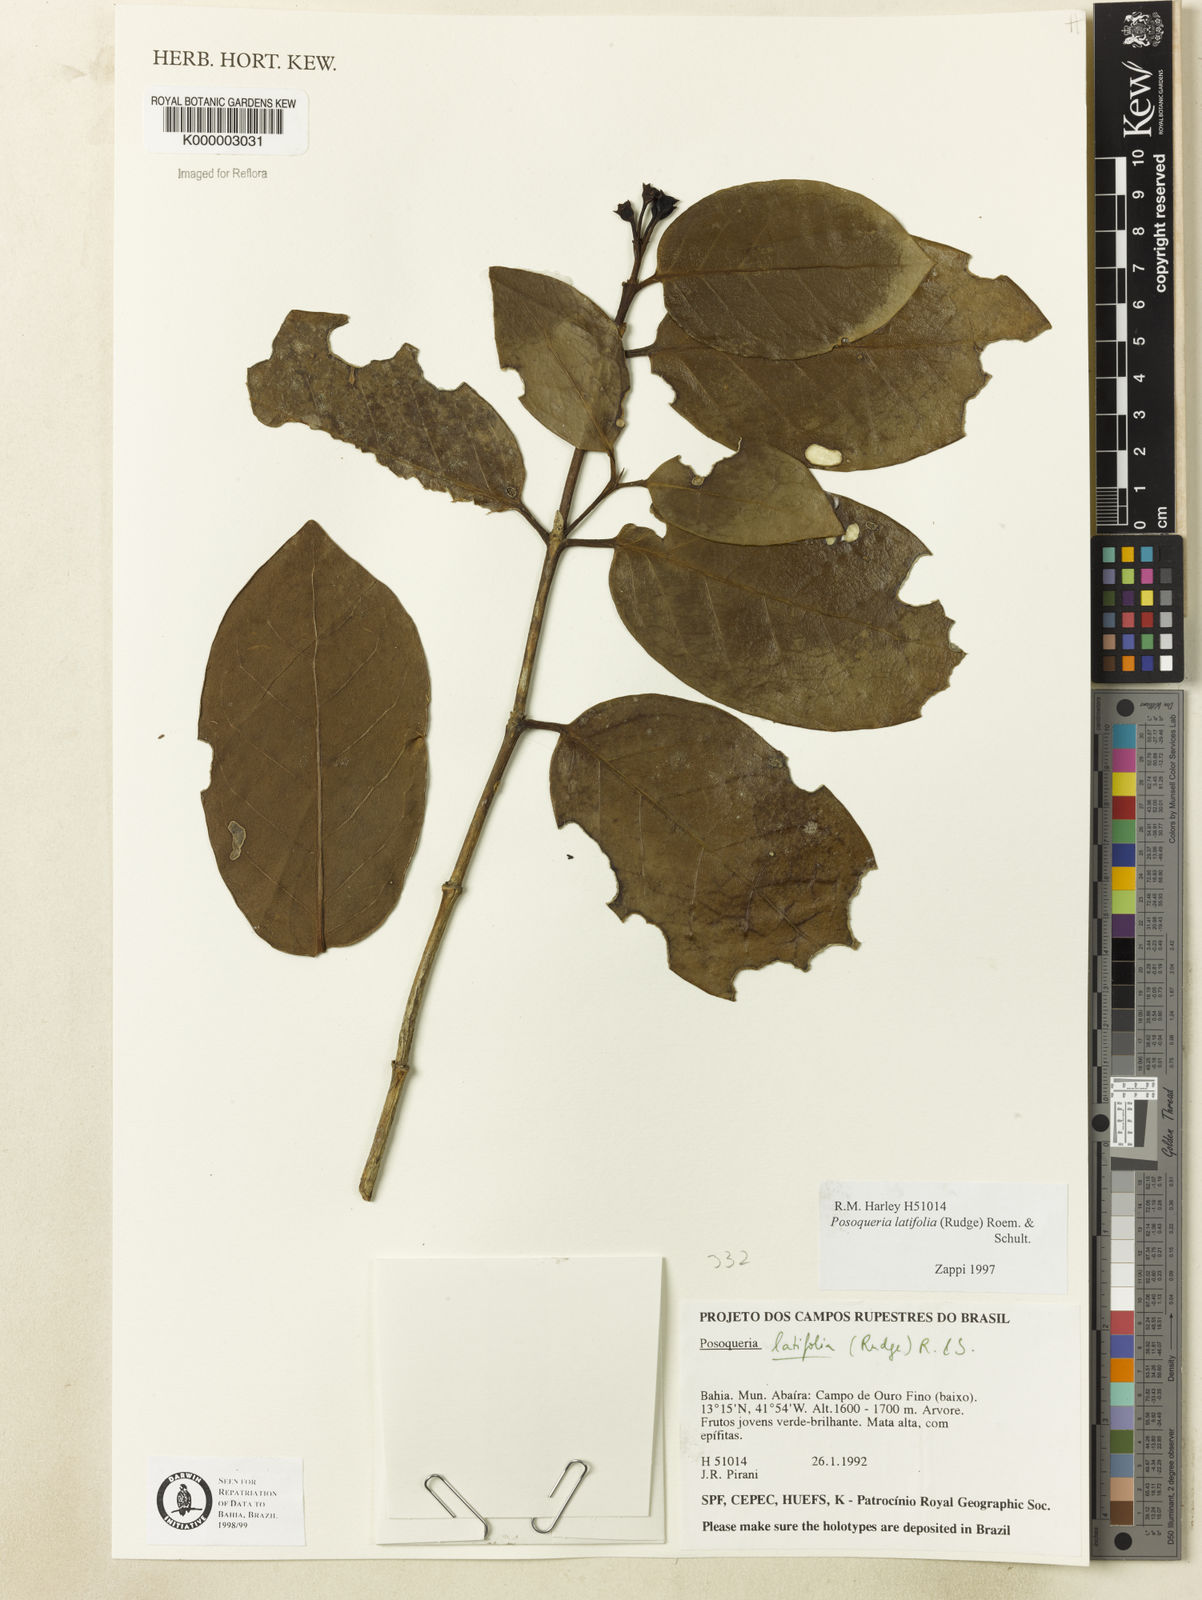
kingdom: Plantae
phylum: Tracheophyta
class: Magnoliopsida
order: Gentianales
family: Rubiaceae
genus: Posoqueria
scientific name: Posoqueria
